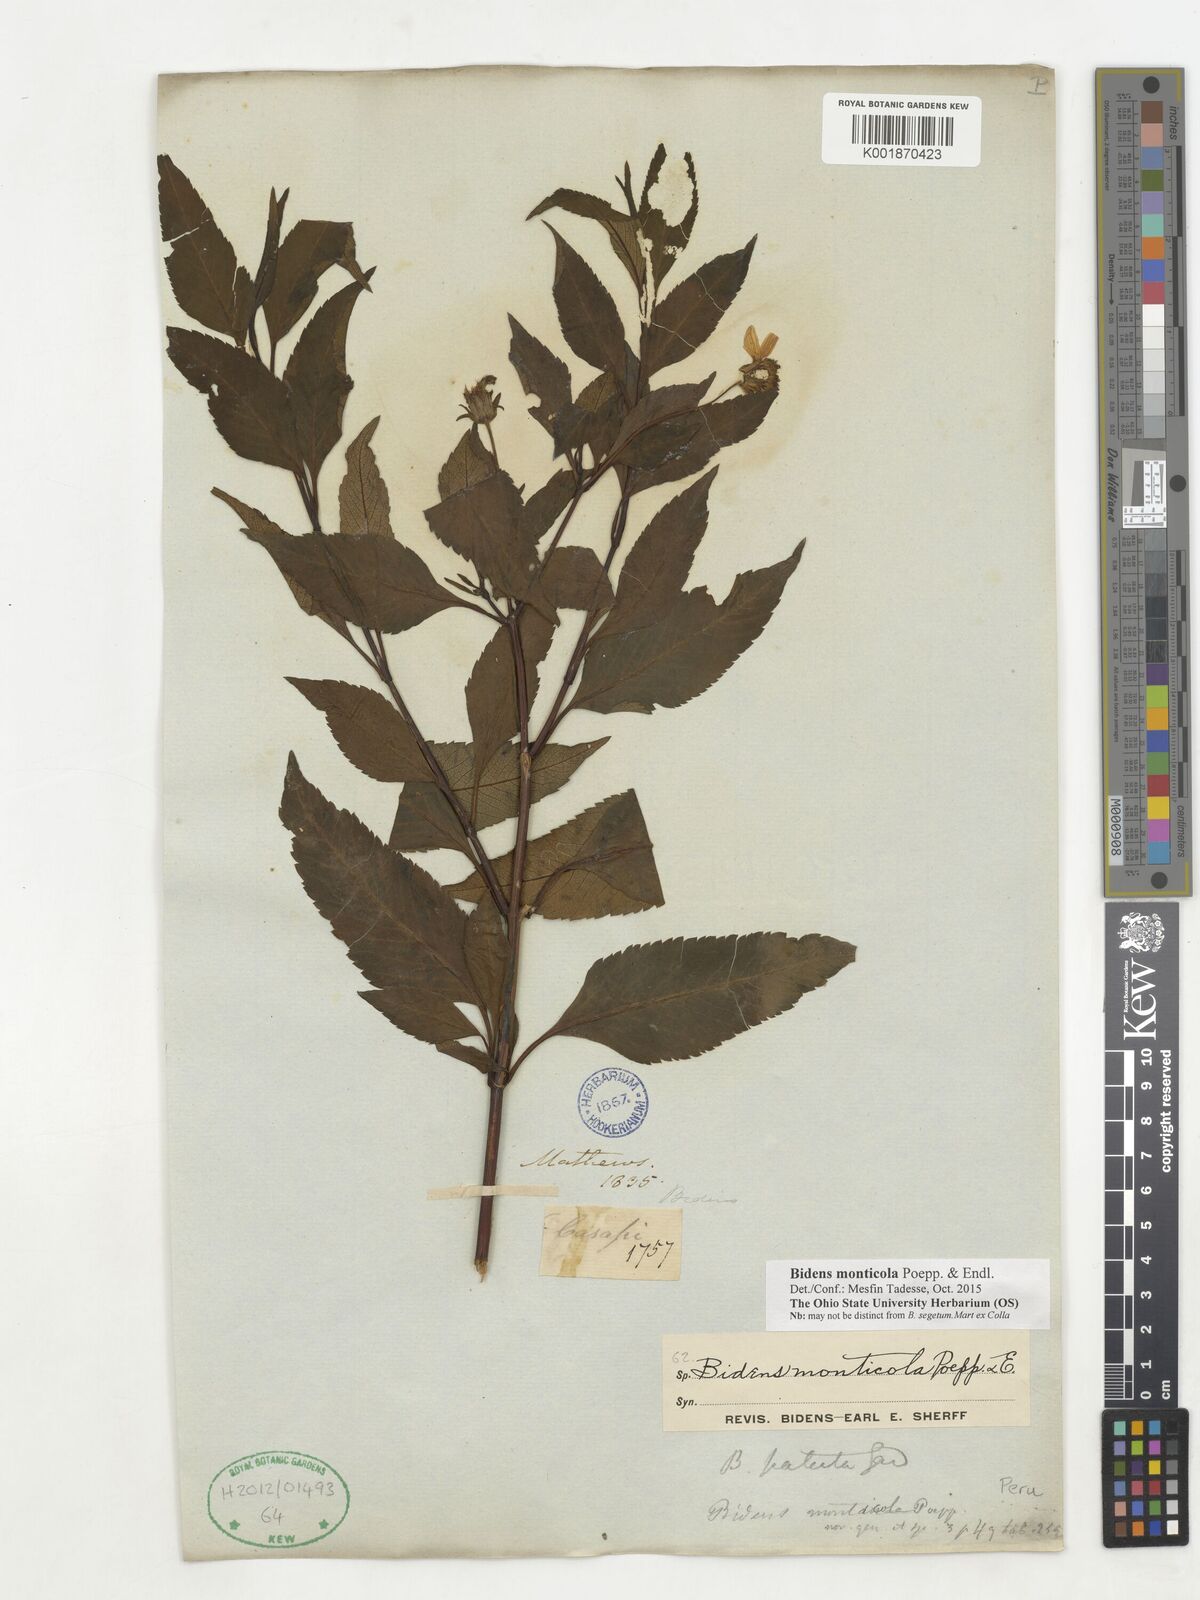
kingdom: Plantae
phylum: Tracheophyta
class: Magnoliopsida
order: Asterales
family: Asteraceae
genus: Bidens
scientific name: Bidens monticola
